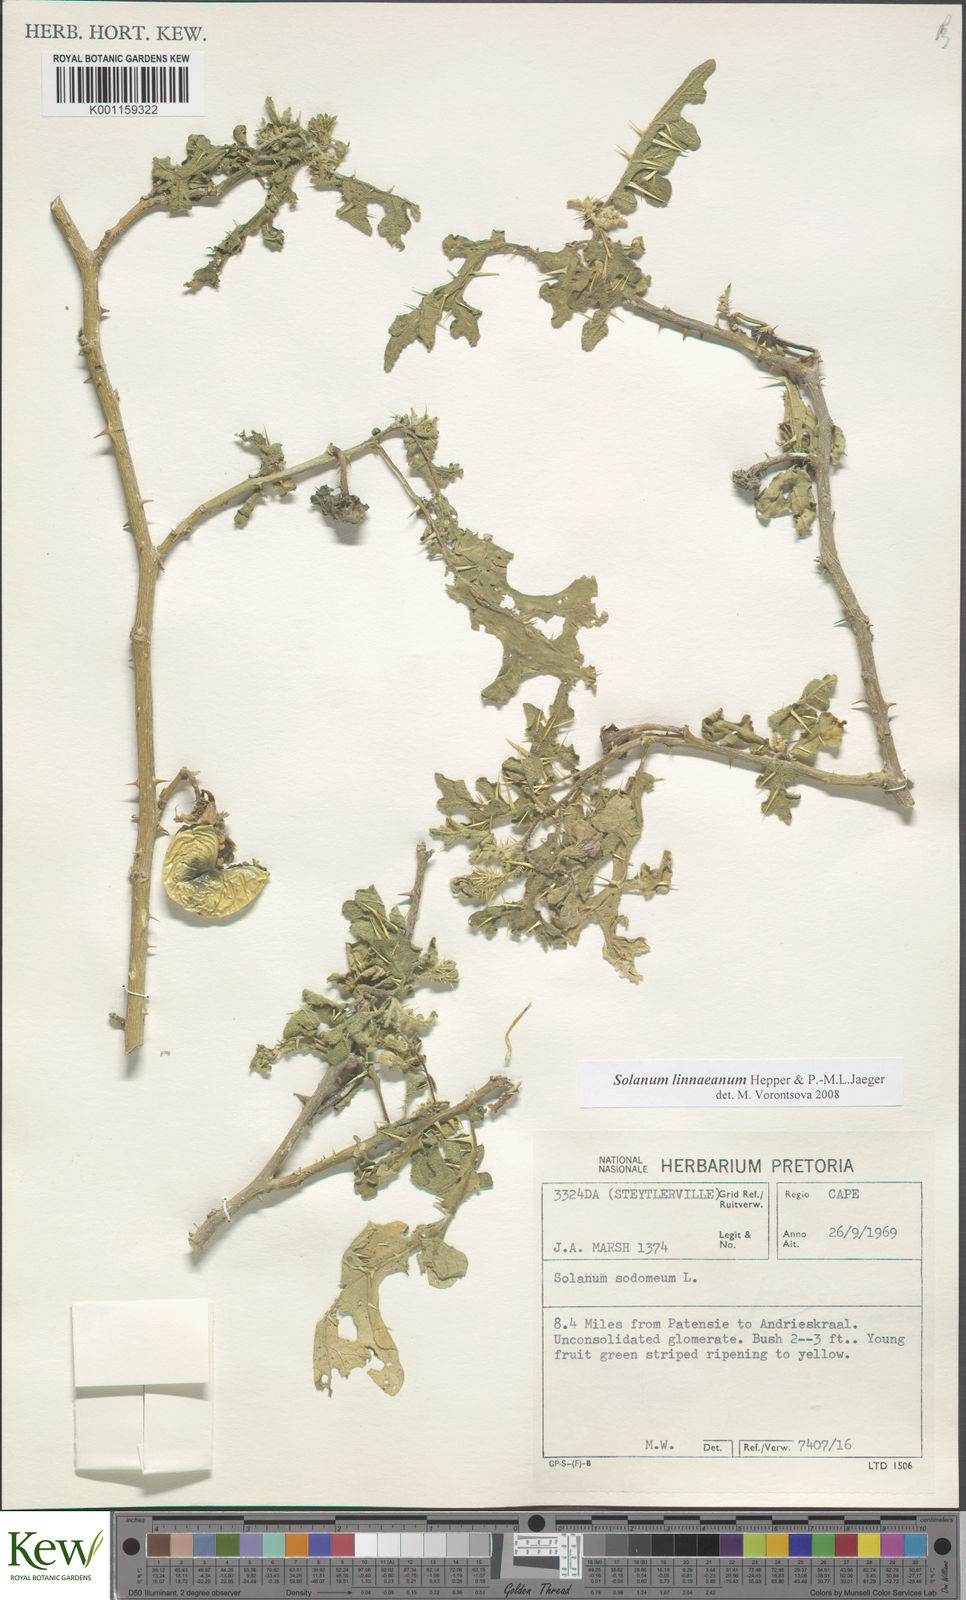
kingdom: Plantae
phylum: Tracheophyta
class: Magnoliopsida
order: Solanales
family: Solanaceae
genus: Solanum
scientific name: Solanum linnaeanum
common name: Nightshade
